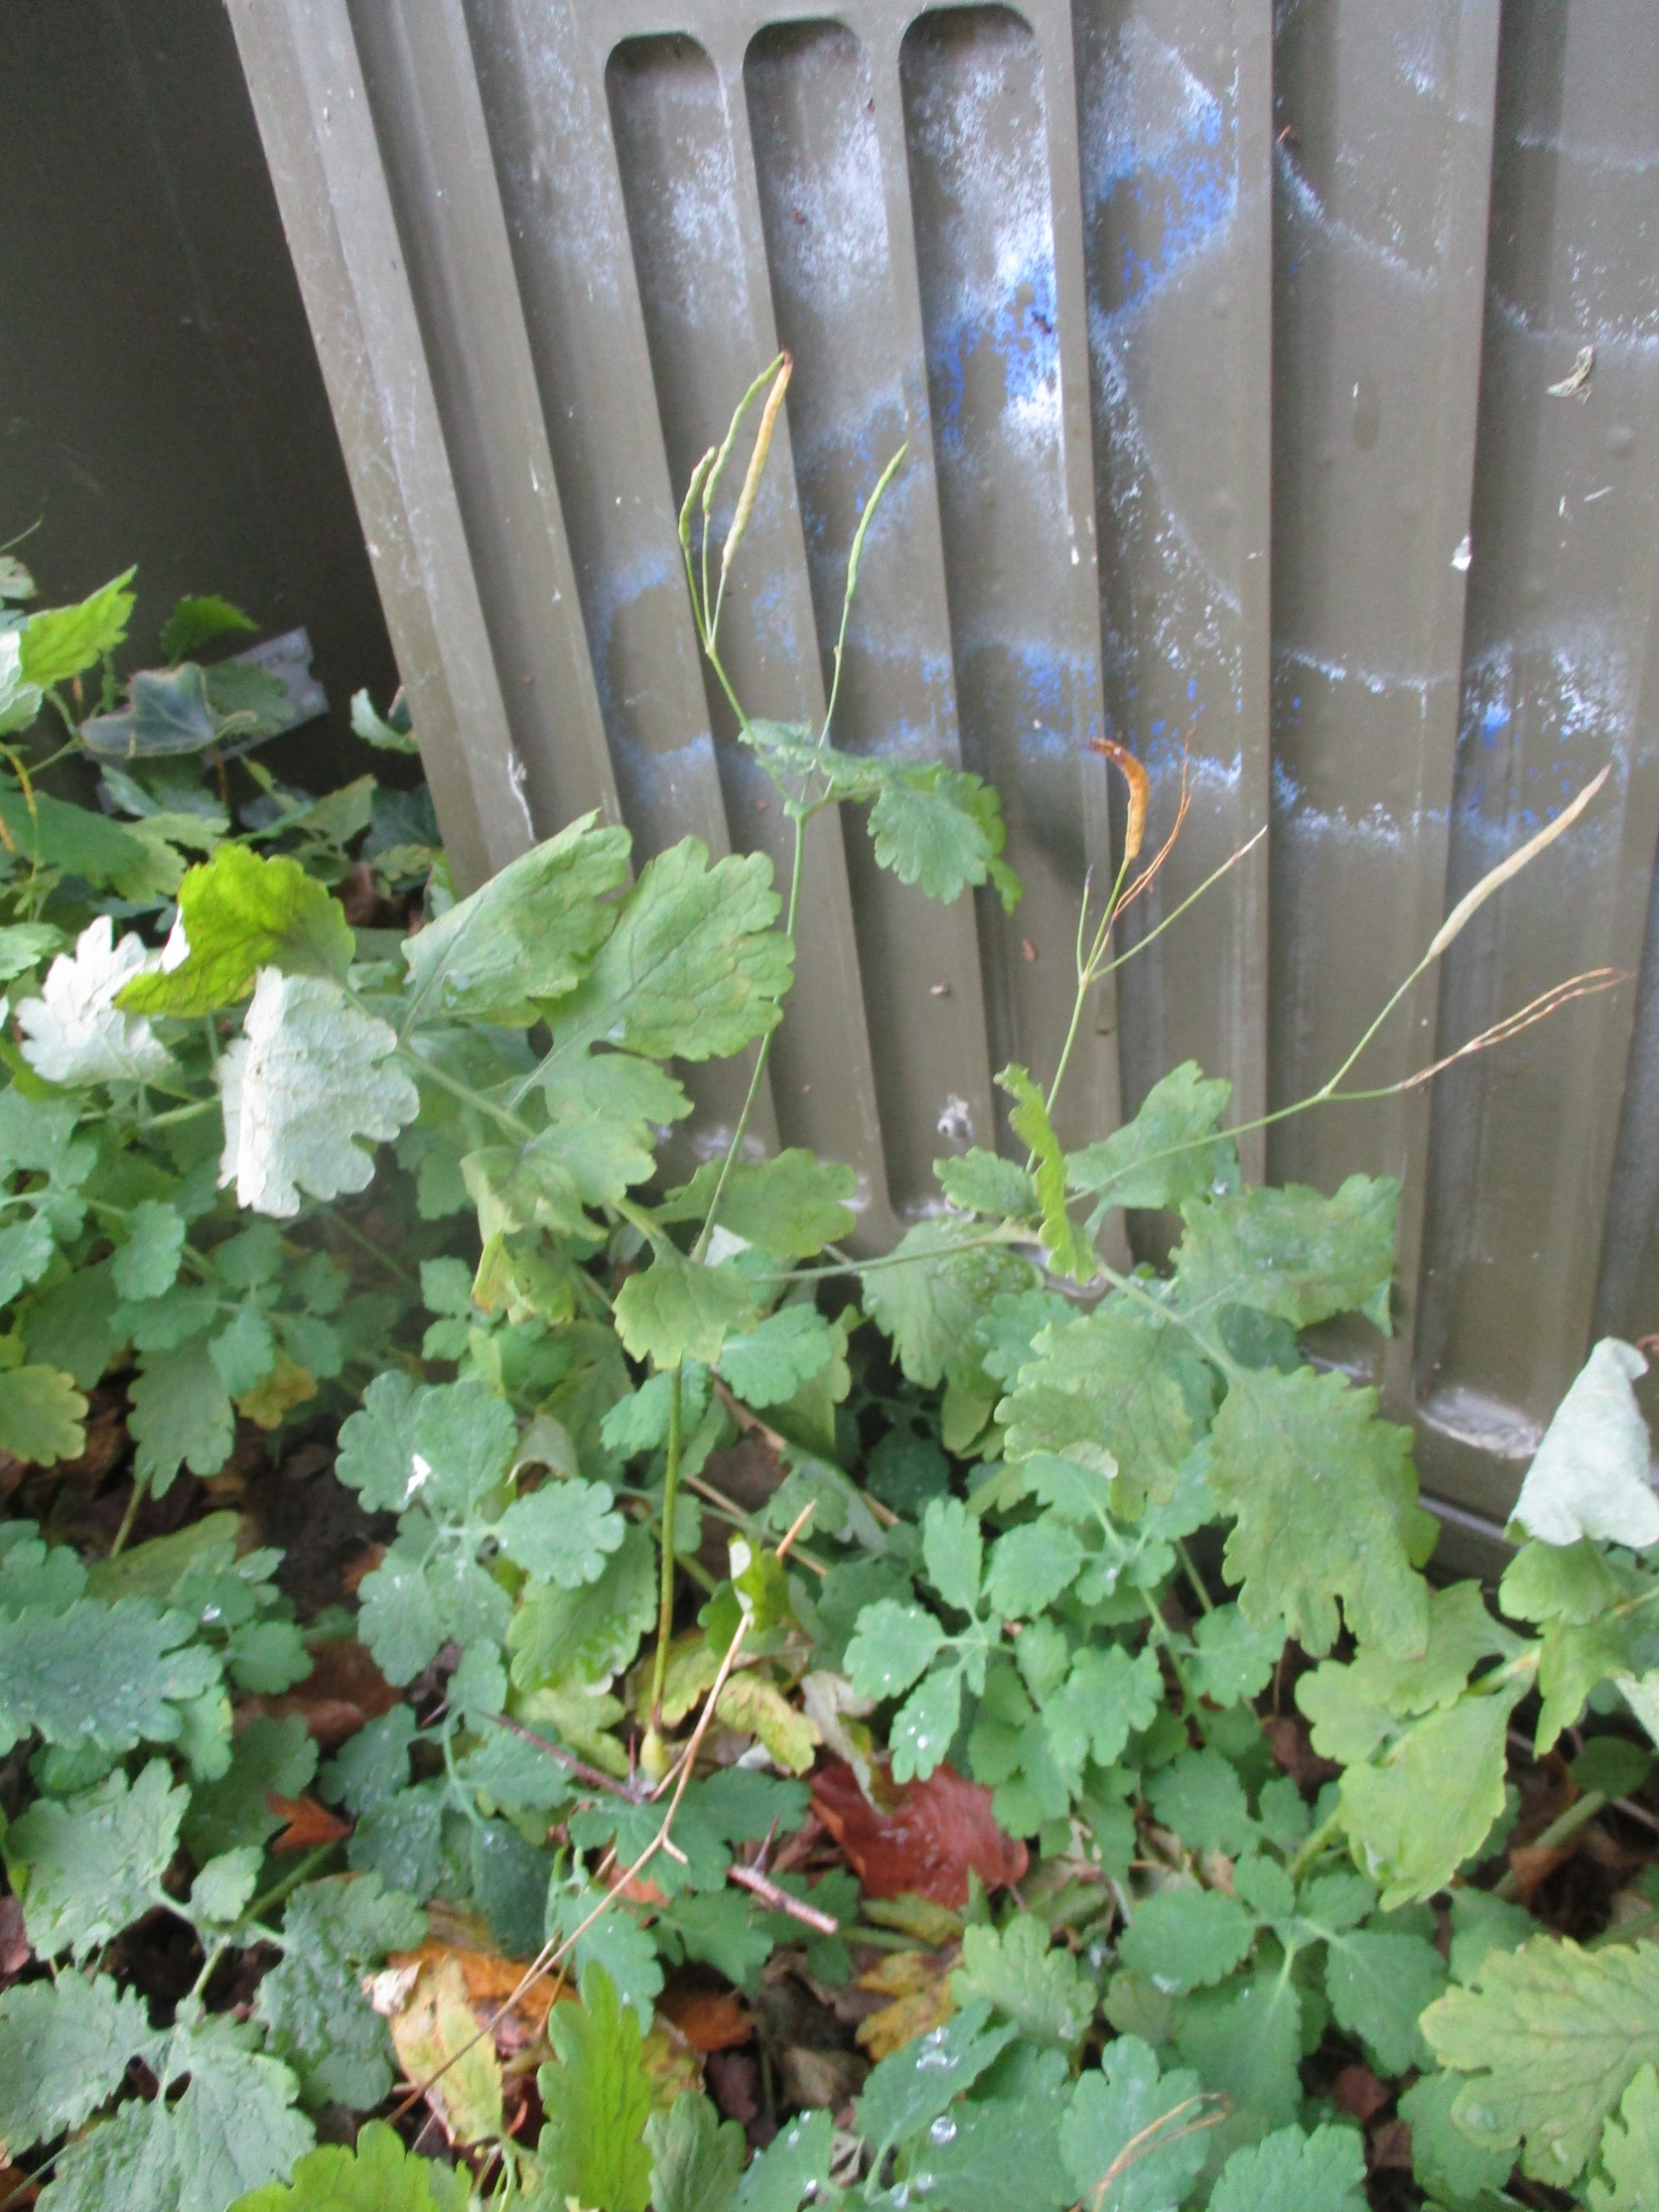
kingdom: Plantae
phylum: Tracheophyta
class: Magnoliopsida
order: Ranunculales
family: Papaveraceae
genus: Chelidonium
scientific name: Chelidonium majus
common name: Svaleurt
